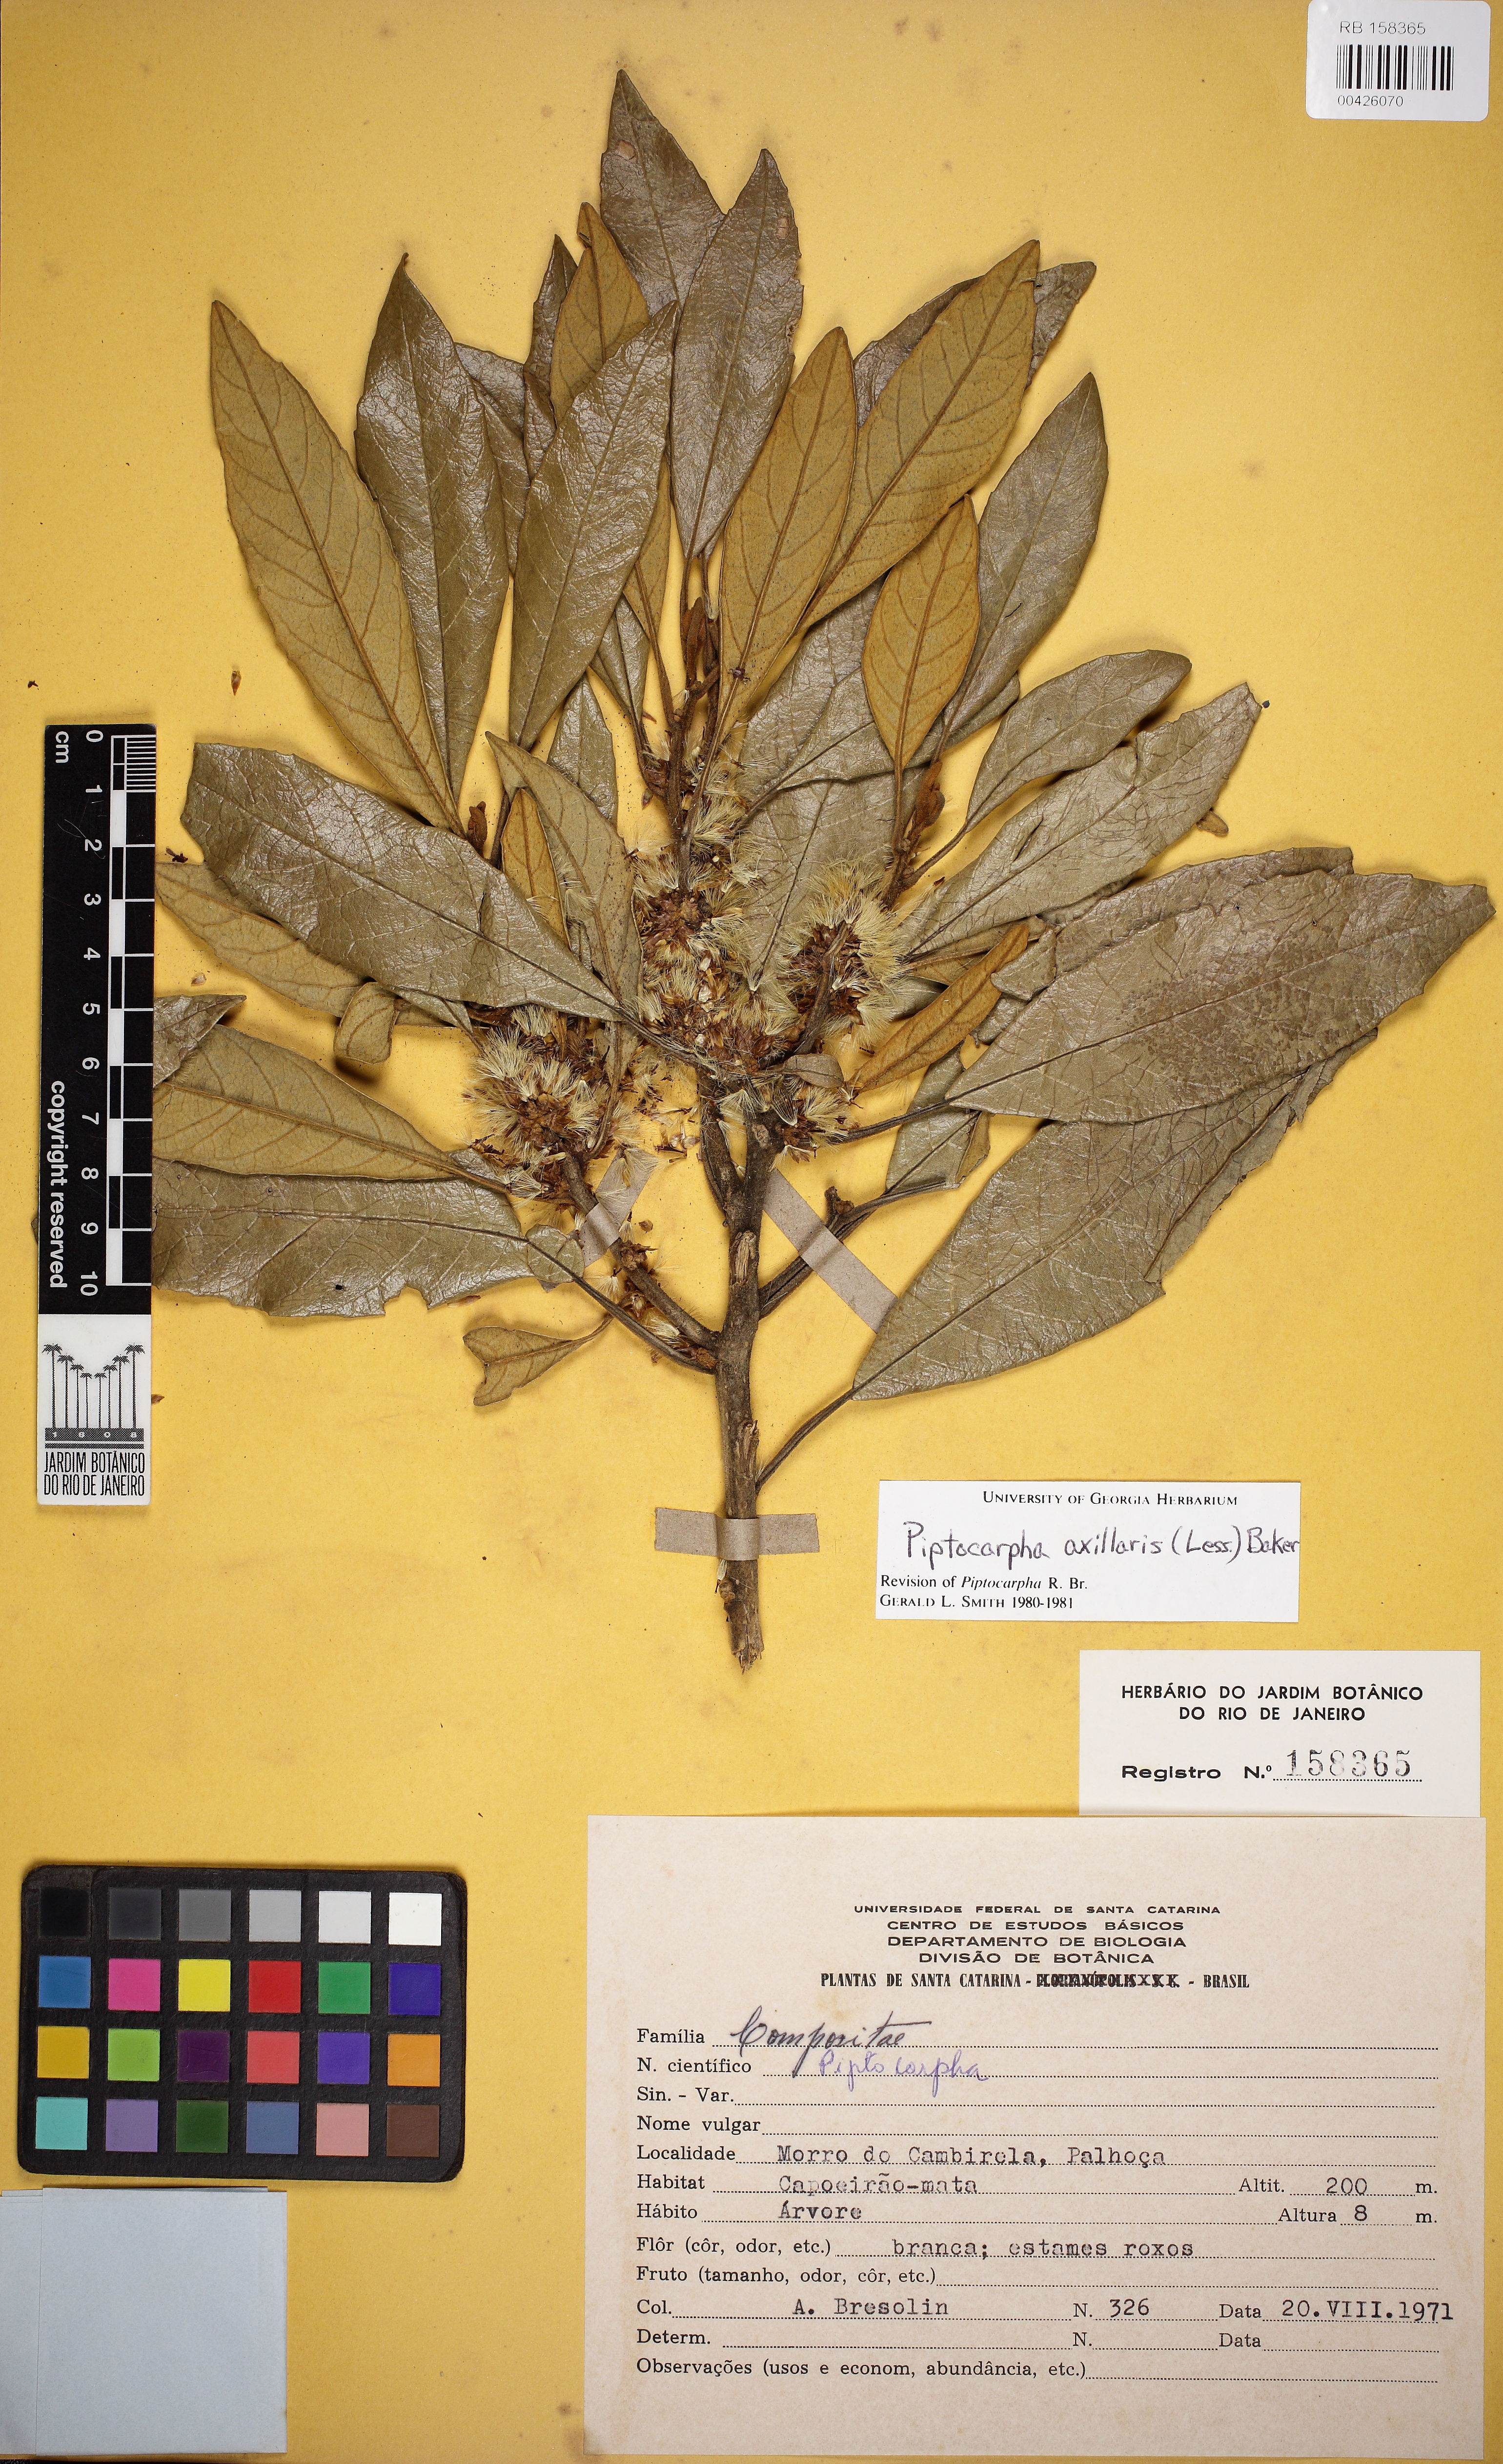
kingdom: Plantae
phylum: Tracheophyta
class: Magnoliopsida
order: Asterales
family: Asteraceae
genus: Piptocarpha
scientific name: Piptocarpha axillaris
